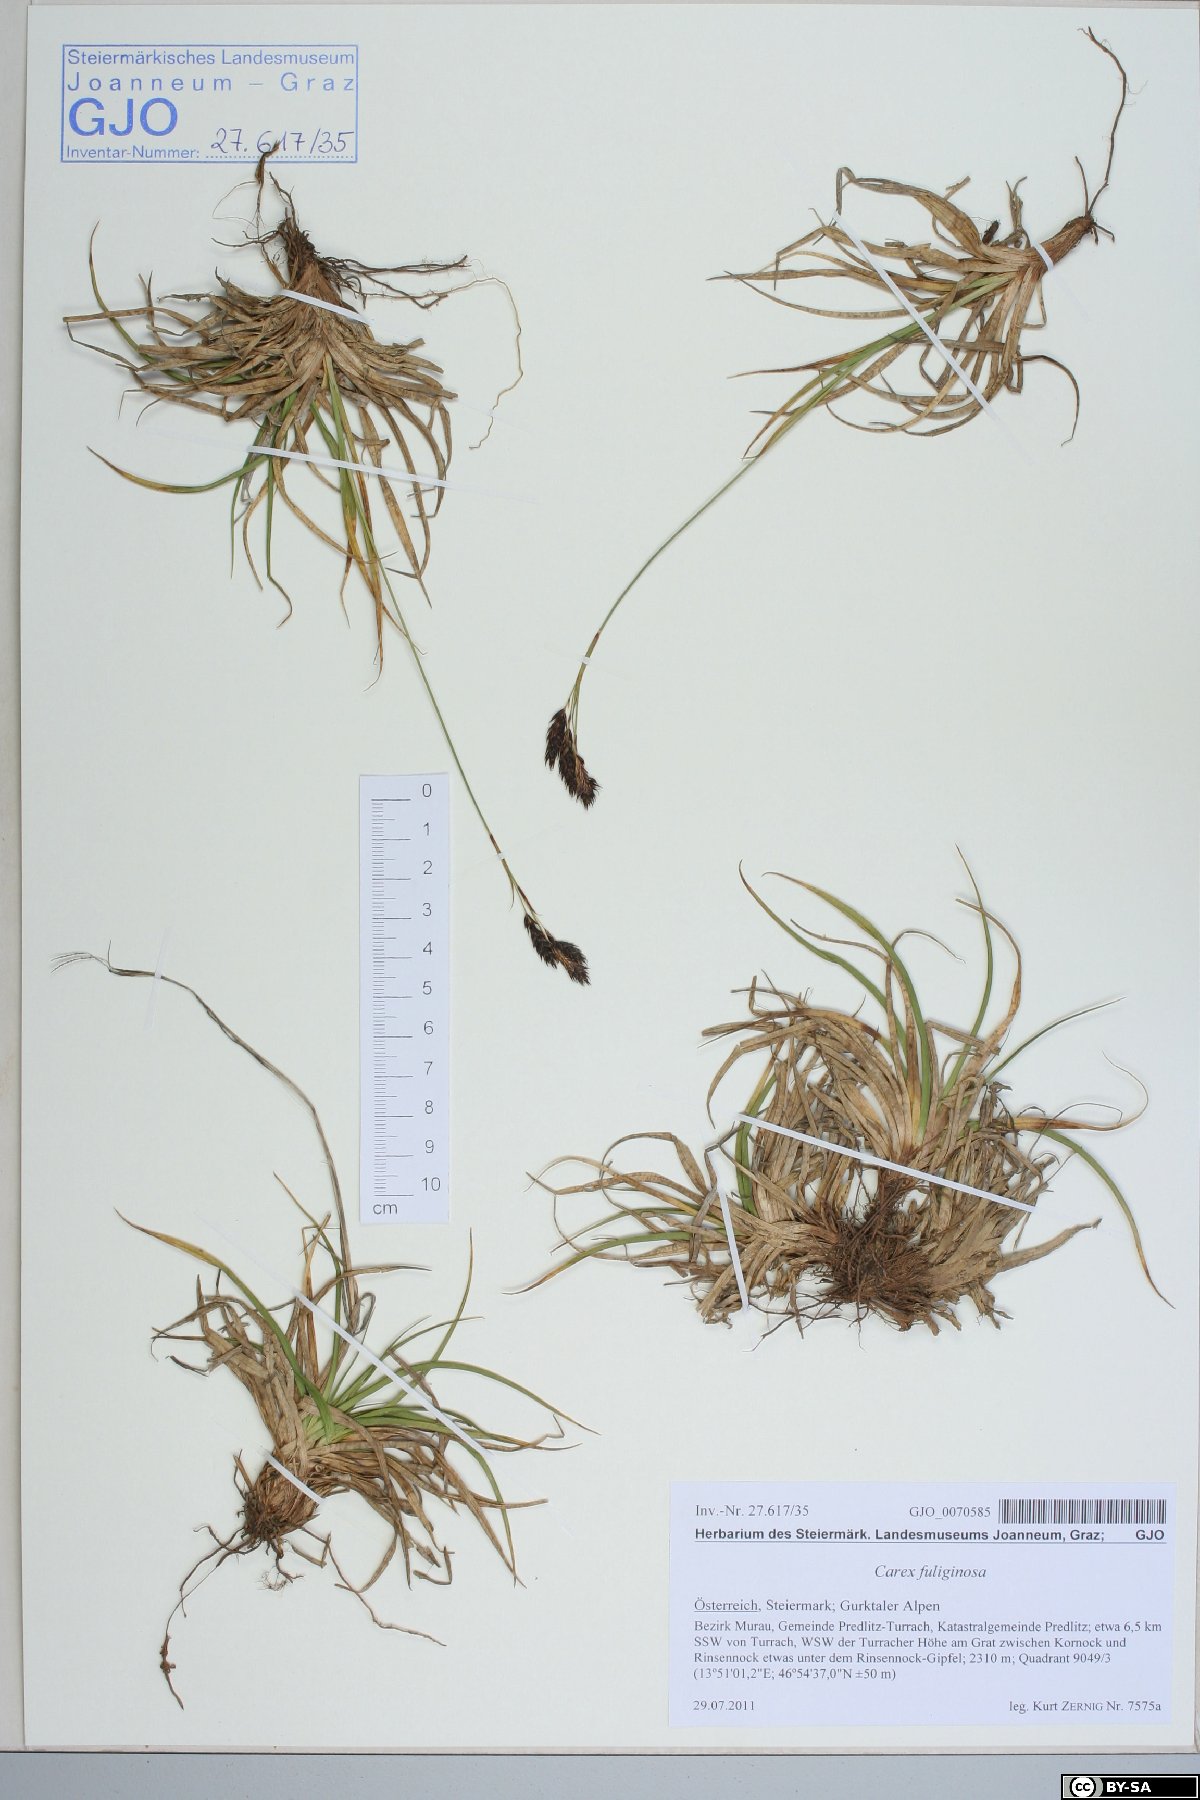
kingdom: Plantae
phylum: Tracheophyta
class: Liliopsida
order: Poales
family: Cyperaceae
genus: Carex
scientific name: Carex fuliginosa
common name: Few-flowered sedge
